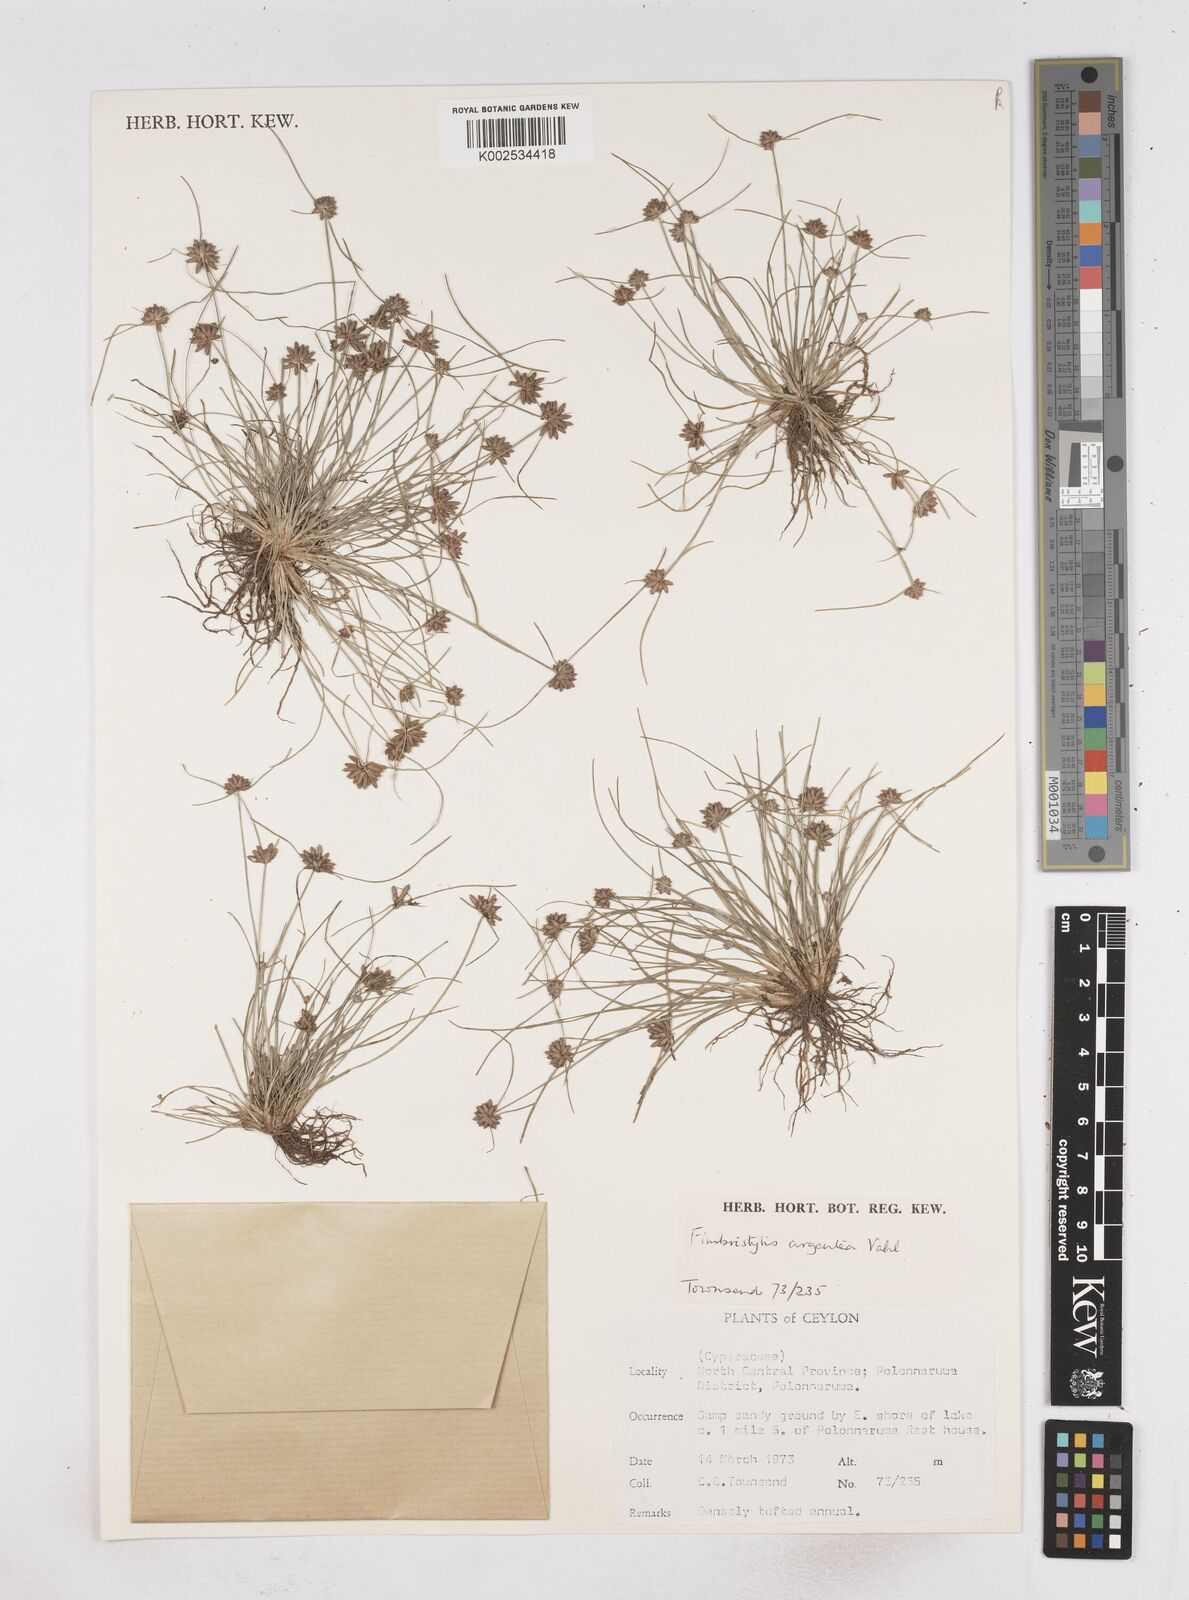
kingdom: Plantae
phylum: Tracheophyta
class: Liliopsida
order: Poales
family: Cyperaceae
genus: Fimbristylis
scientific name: Fimbristylis argentea
